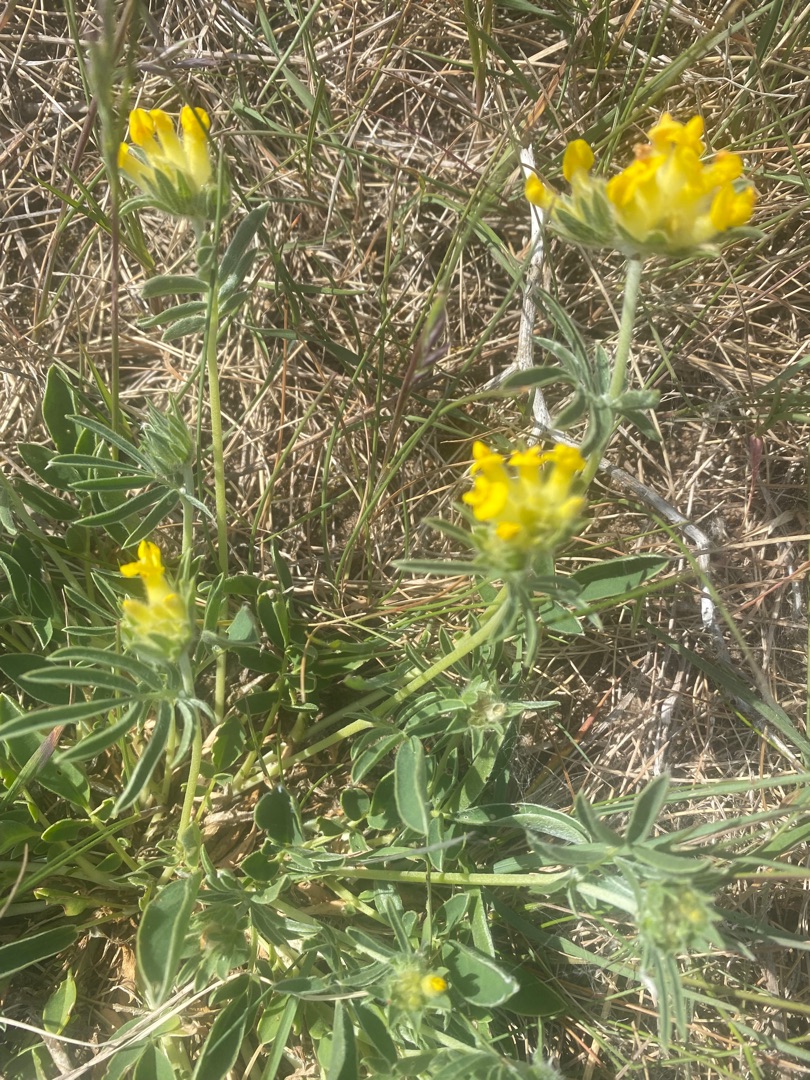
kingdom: Plantae
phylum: Tracheophyta
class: Magnoliopsida
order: Fabales
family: Fabaceae
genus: Anthyllis
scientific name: Anthyllis vulneraria
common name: Rundbælg
